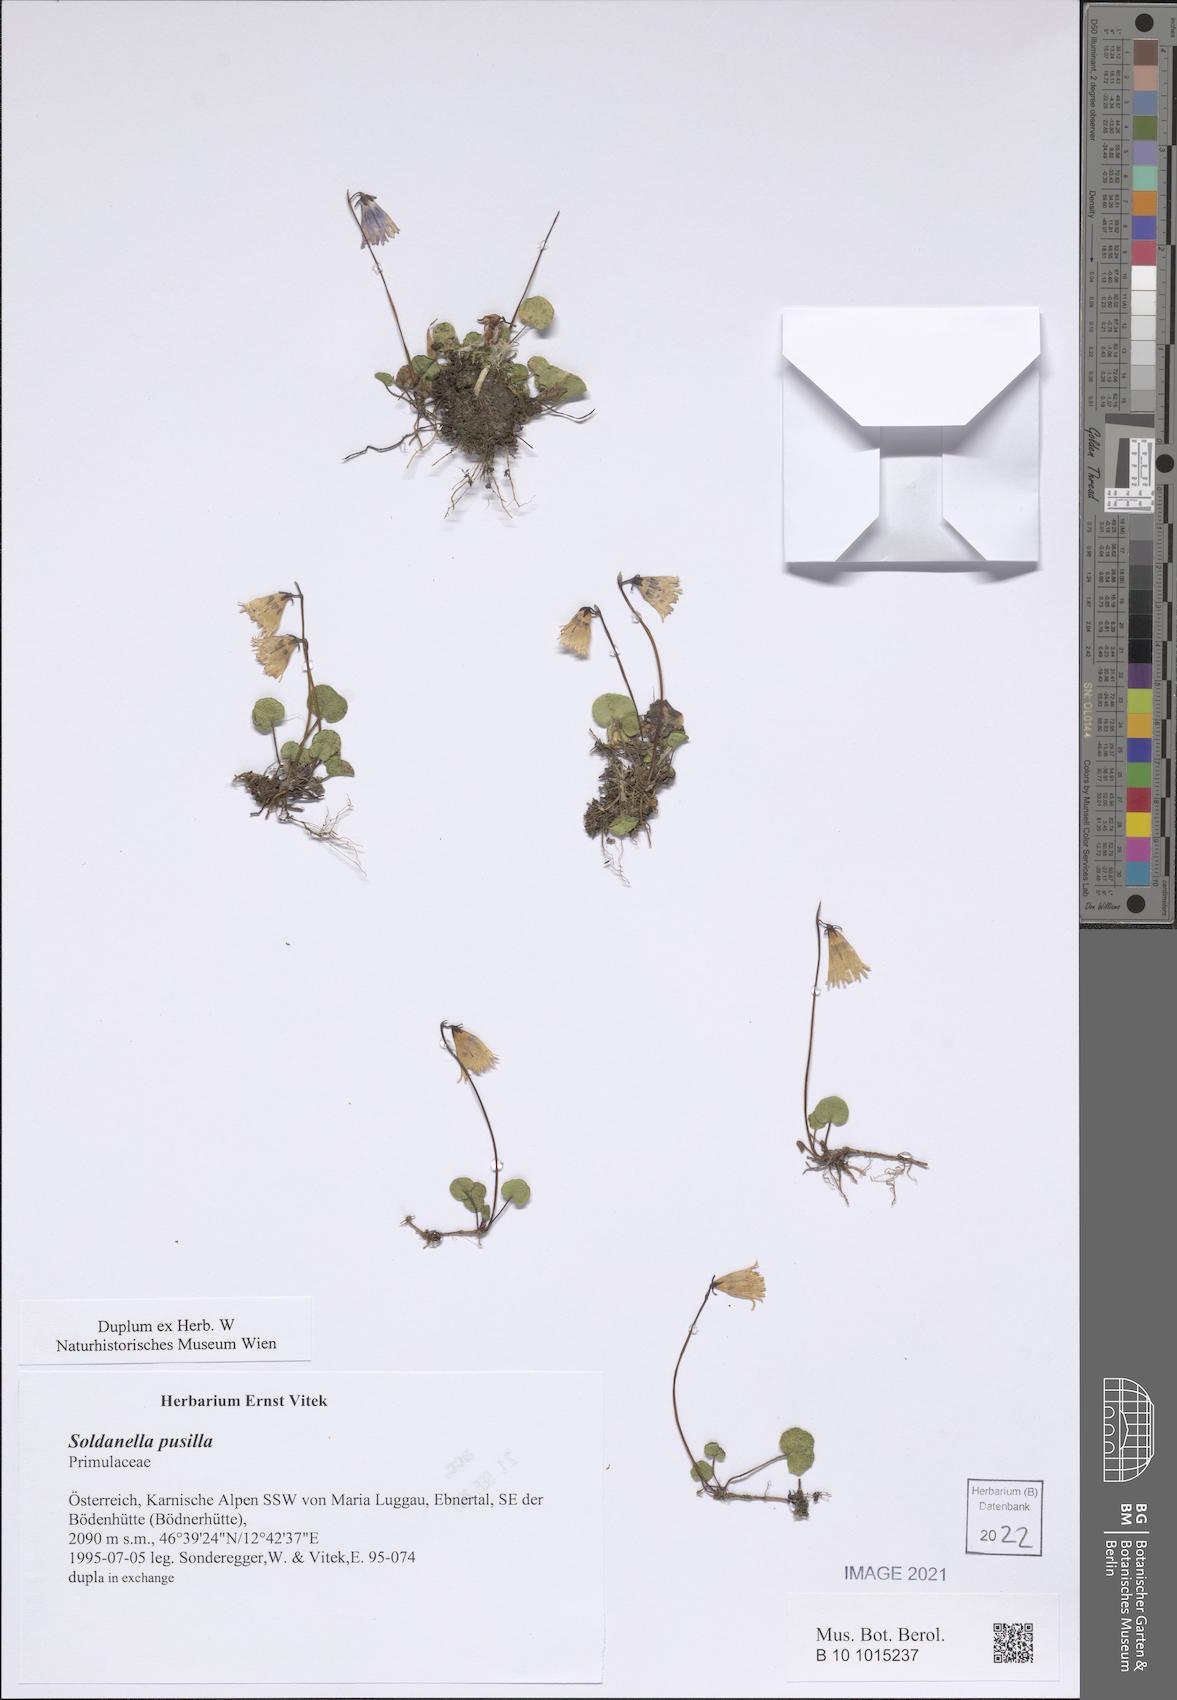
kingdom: Plantae
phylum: Tracheophyta
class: Magnoliopsida
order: Ericales
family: Primulaceae
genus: Soldanella
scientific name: Soldanella pusilla
